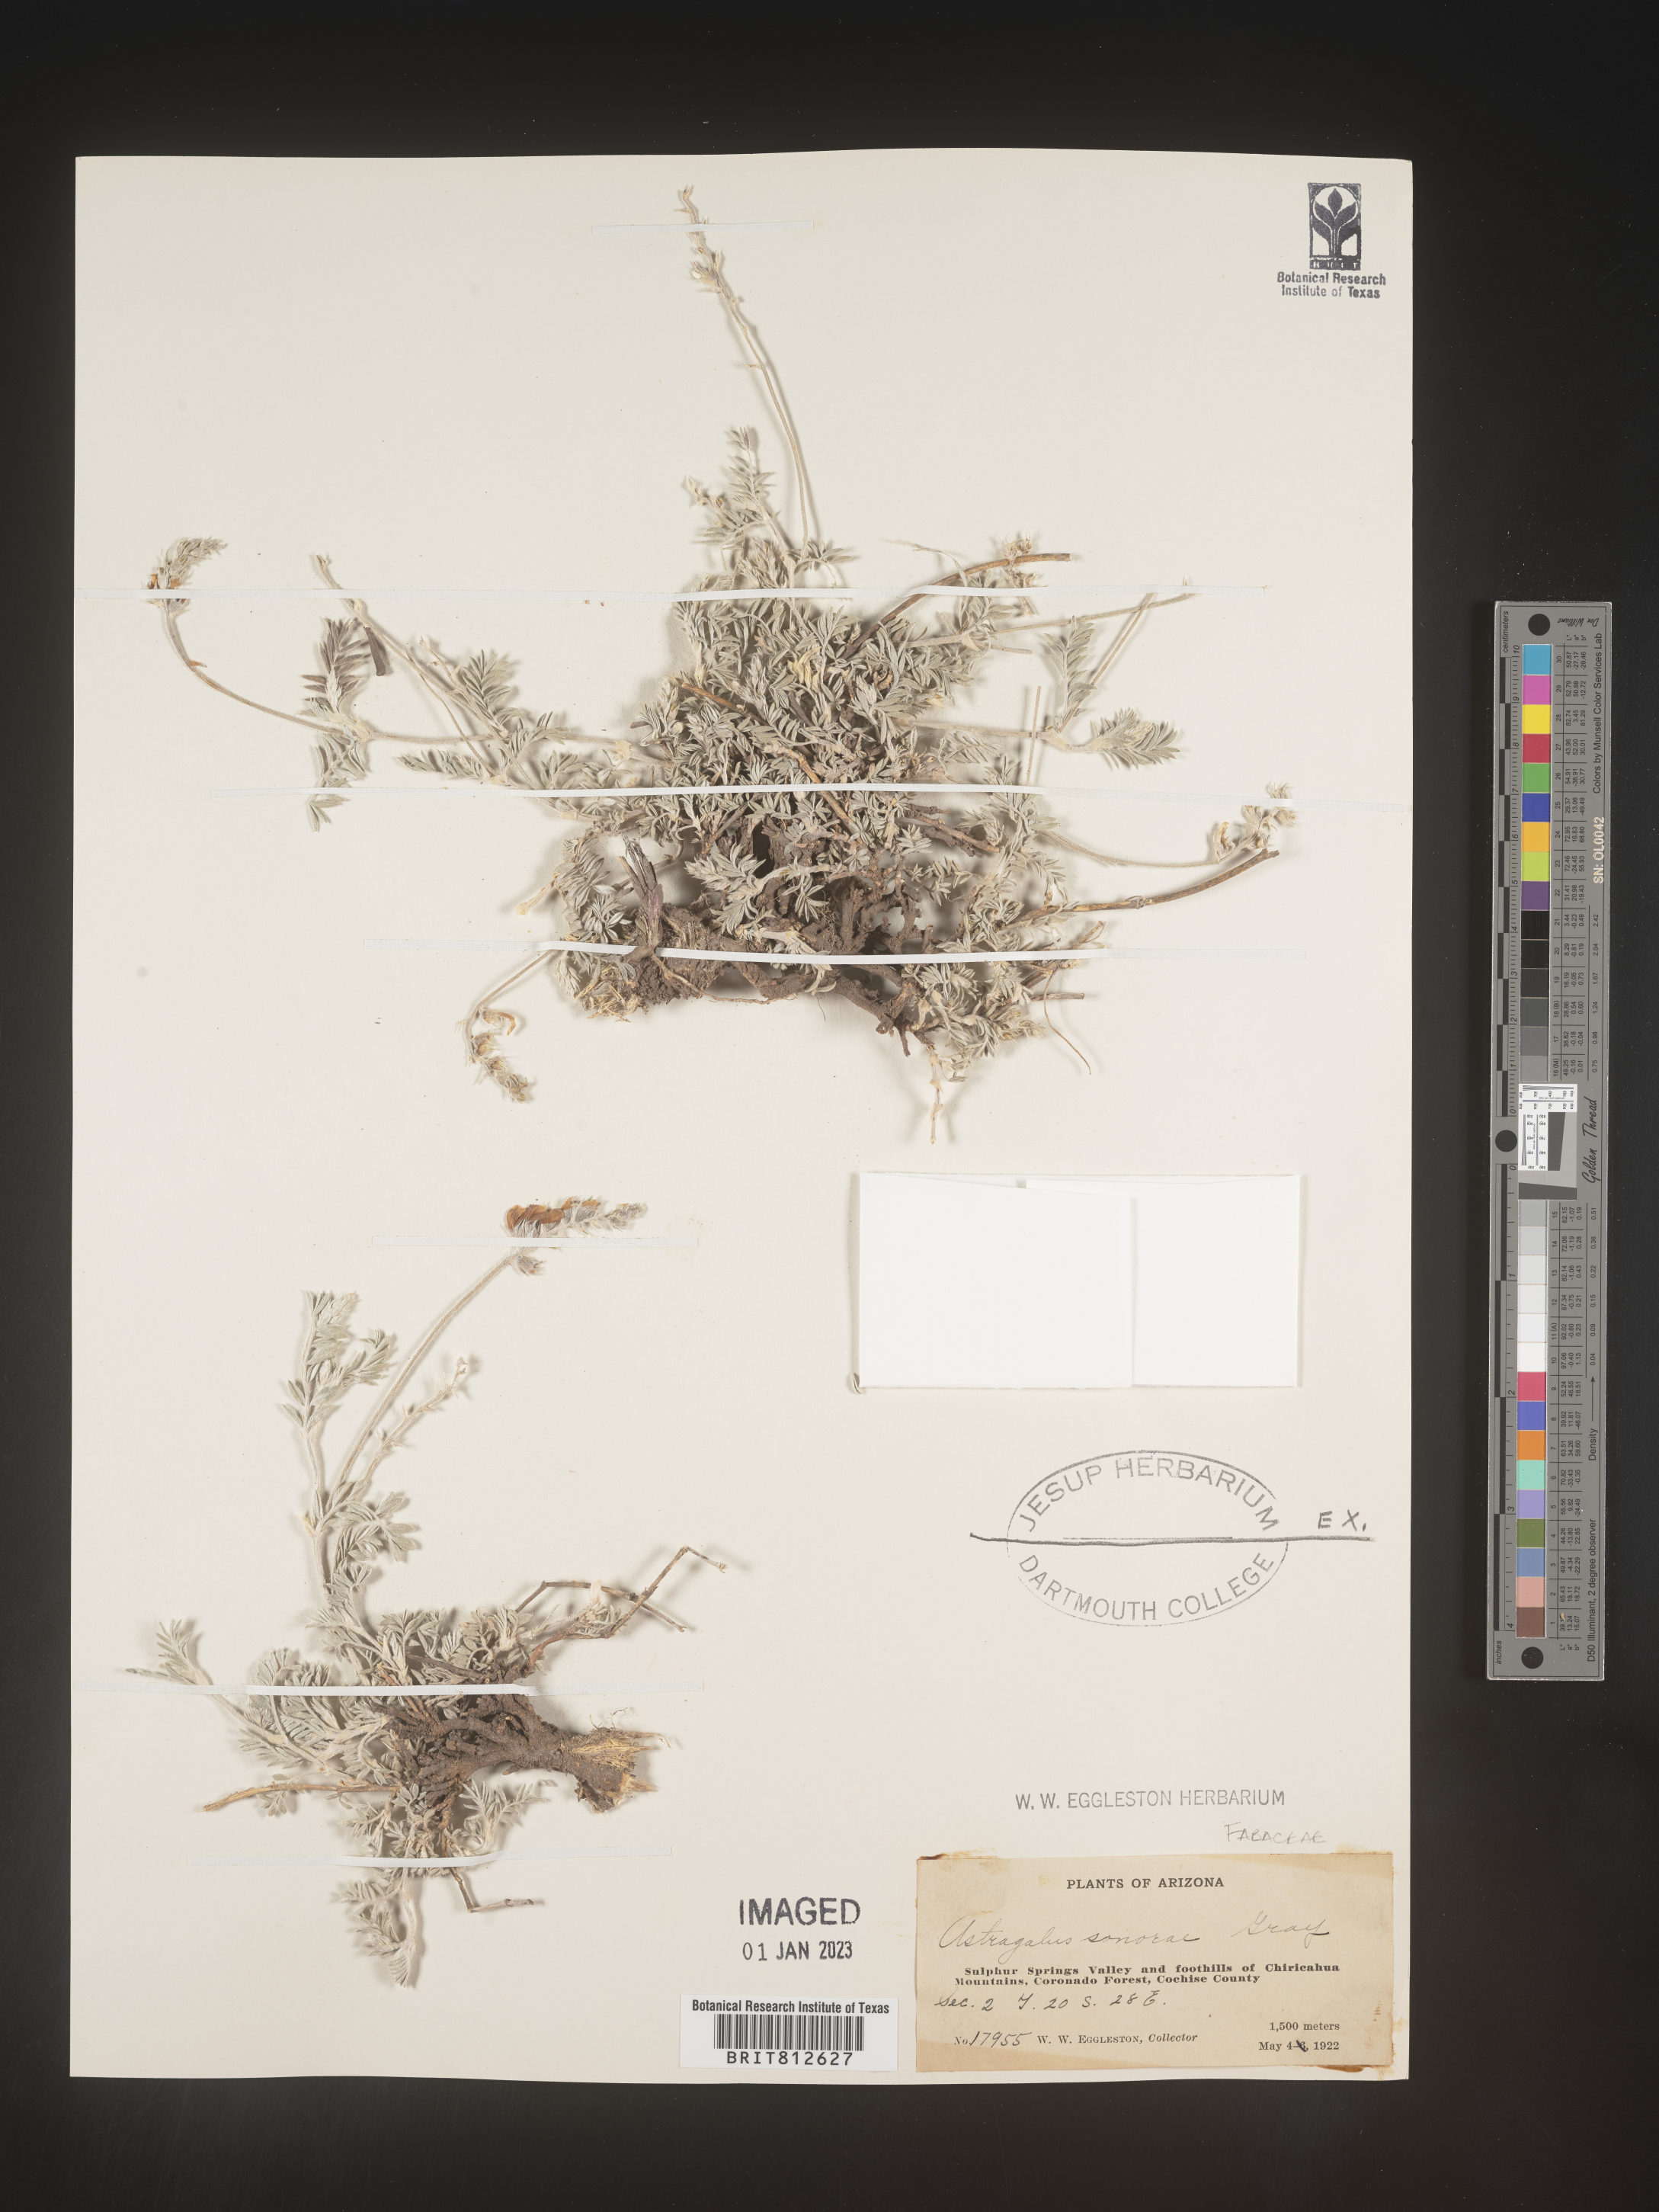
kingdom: Plantae
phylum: Tracheophyta
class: Magnoliopsida
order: Fabales
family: Fabaceae
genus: Astragalus
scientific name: Astragalus
